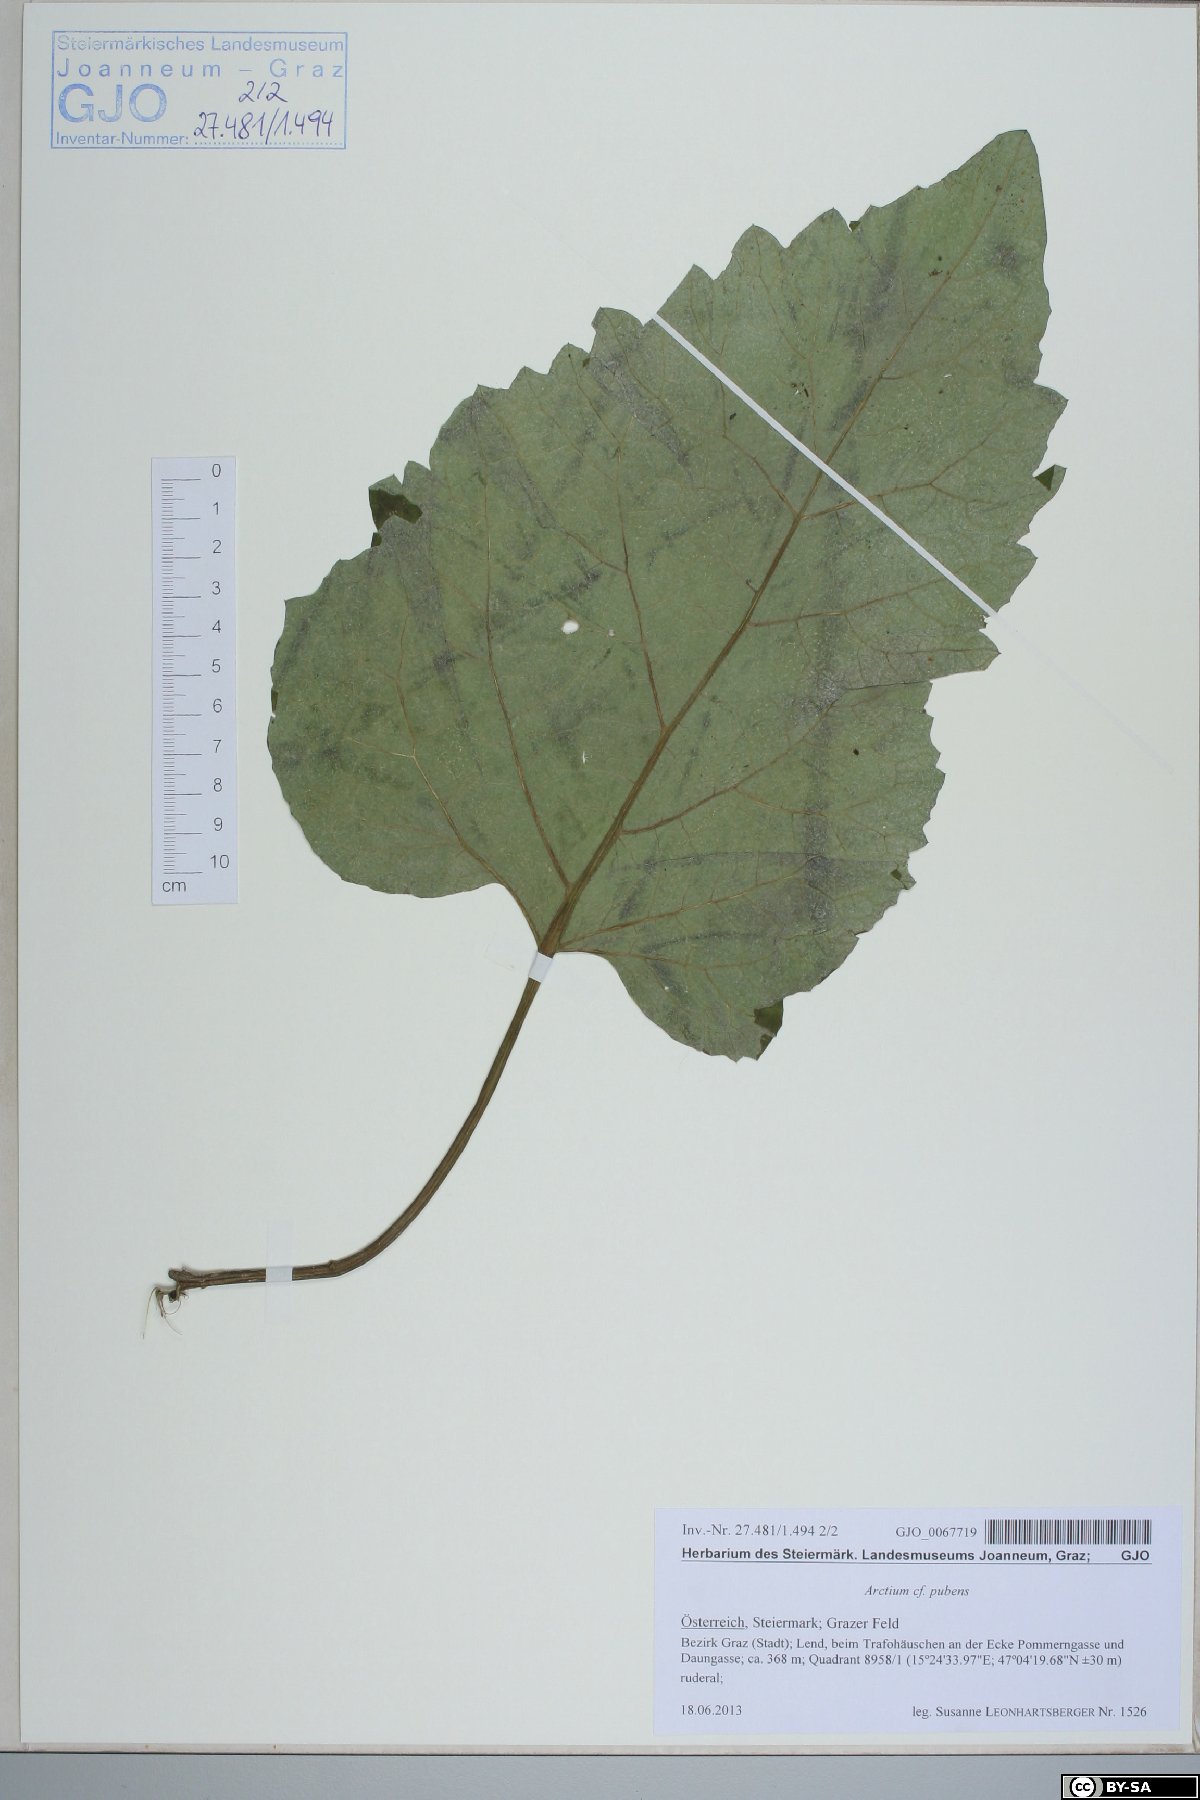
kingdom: Plantae
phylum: Tracheophyta
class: Magnoliopsida
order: Asterales
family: Asteraceae
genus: Arctium
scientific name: Arctium minus
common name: Lesser burdock
